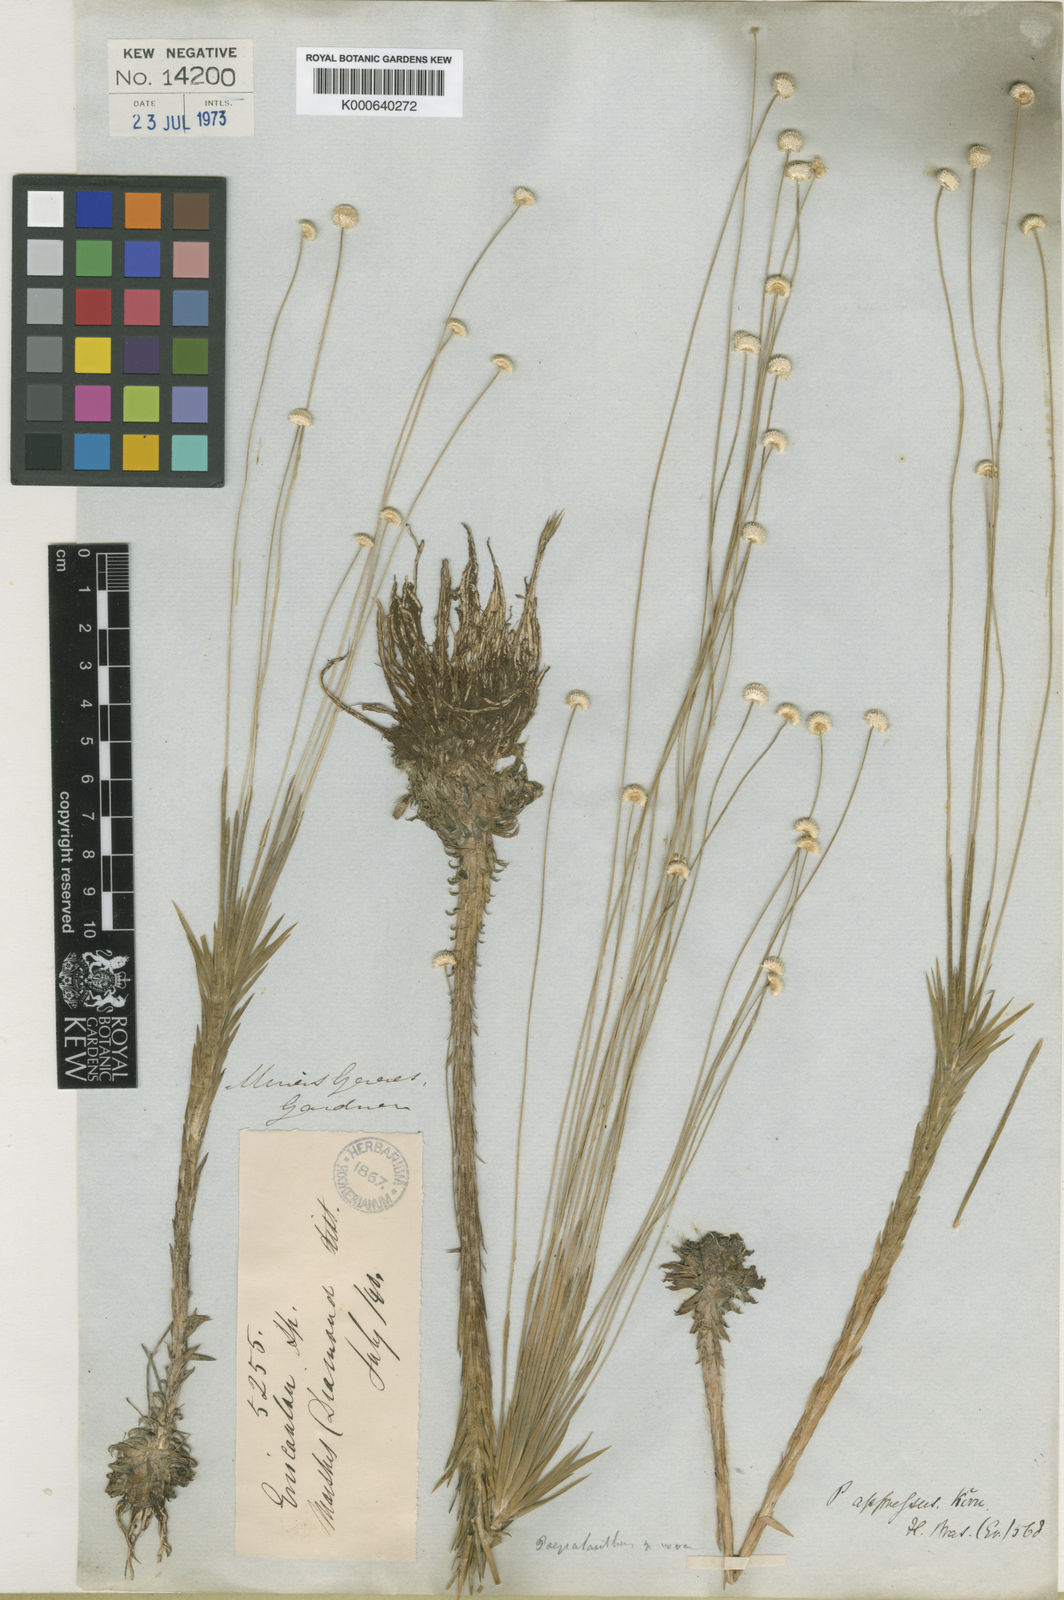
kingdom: Plantae
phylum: Tracheophyta
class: Liliopsida
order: Poales
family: Eriocaulaceae
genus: Syngonanthus
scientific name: Syngonanthus
